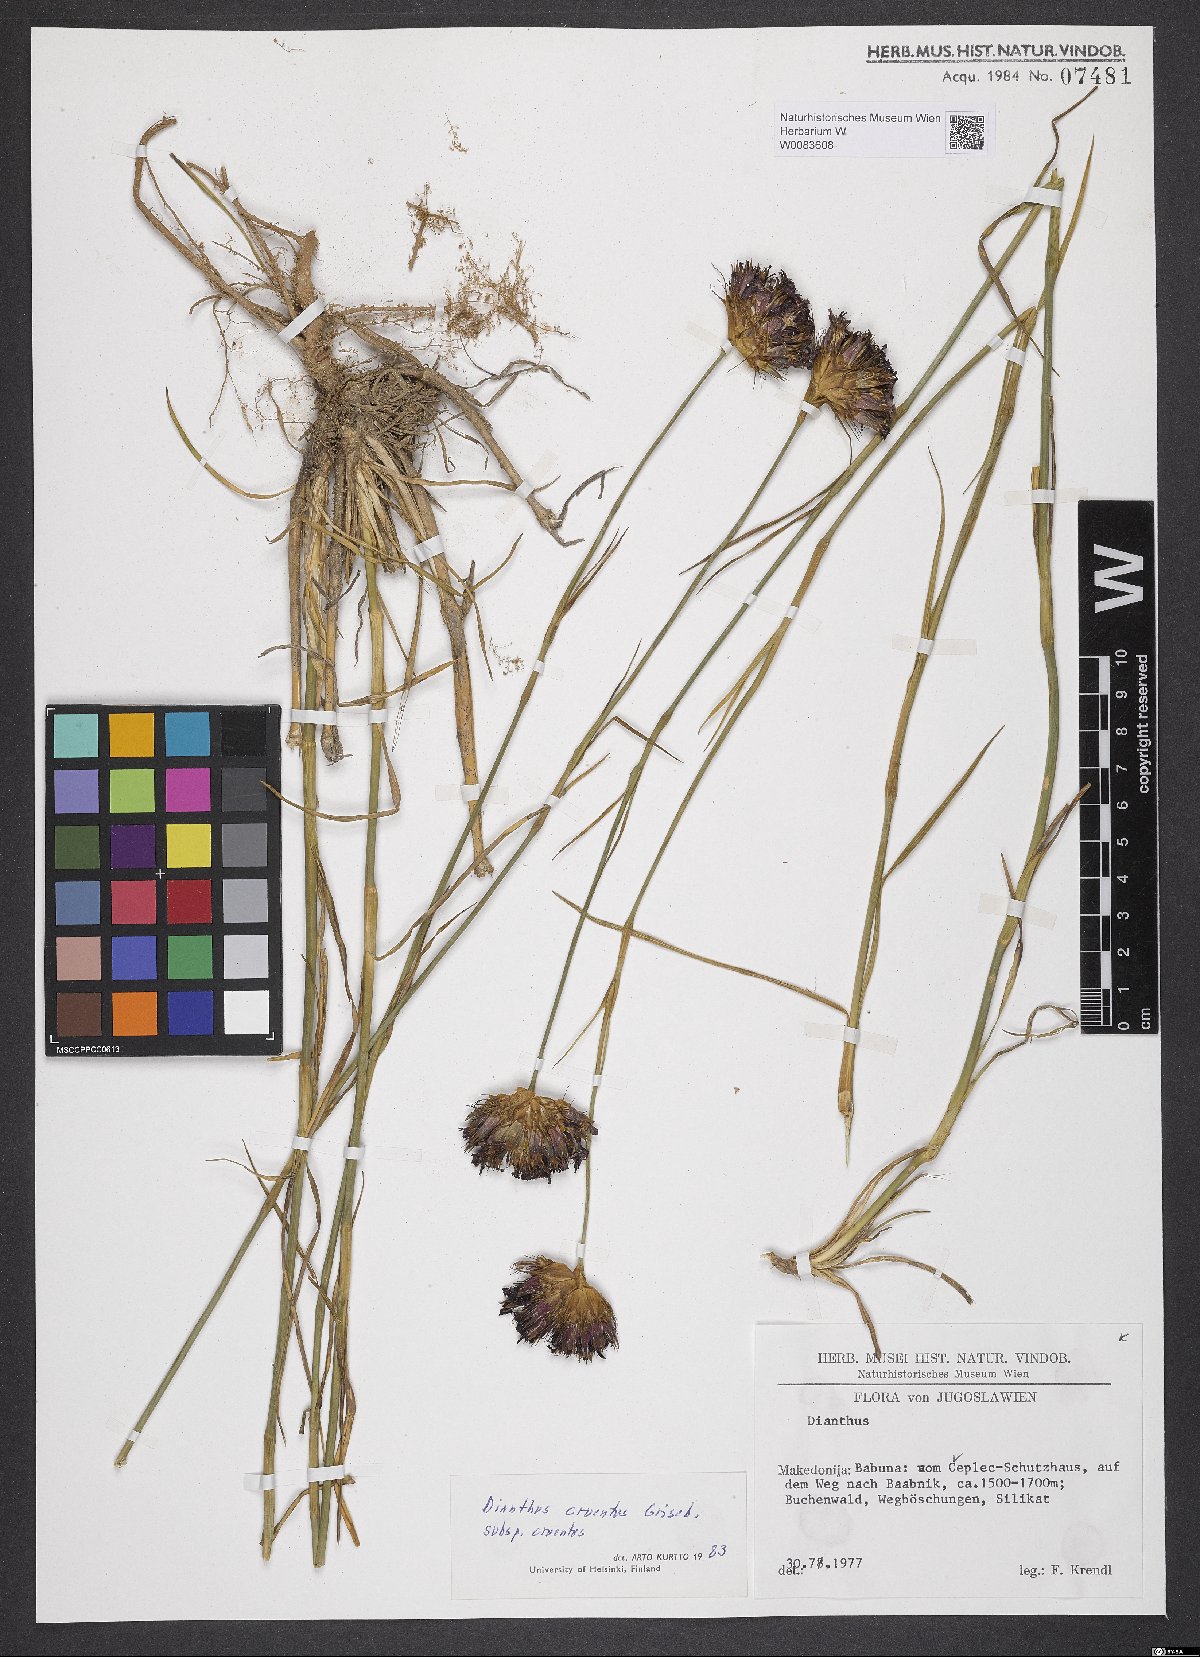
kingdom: Plantae
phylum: Tracheophyta
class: Magnoliopsida
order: Caryophyllales
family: Caryophyllaceae
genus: Dianthus
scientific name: Dianthus cruentus
